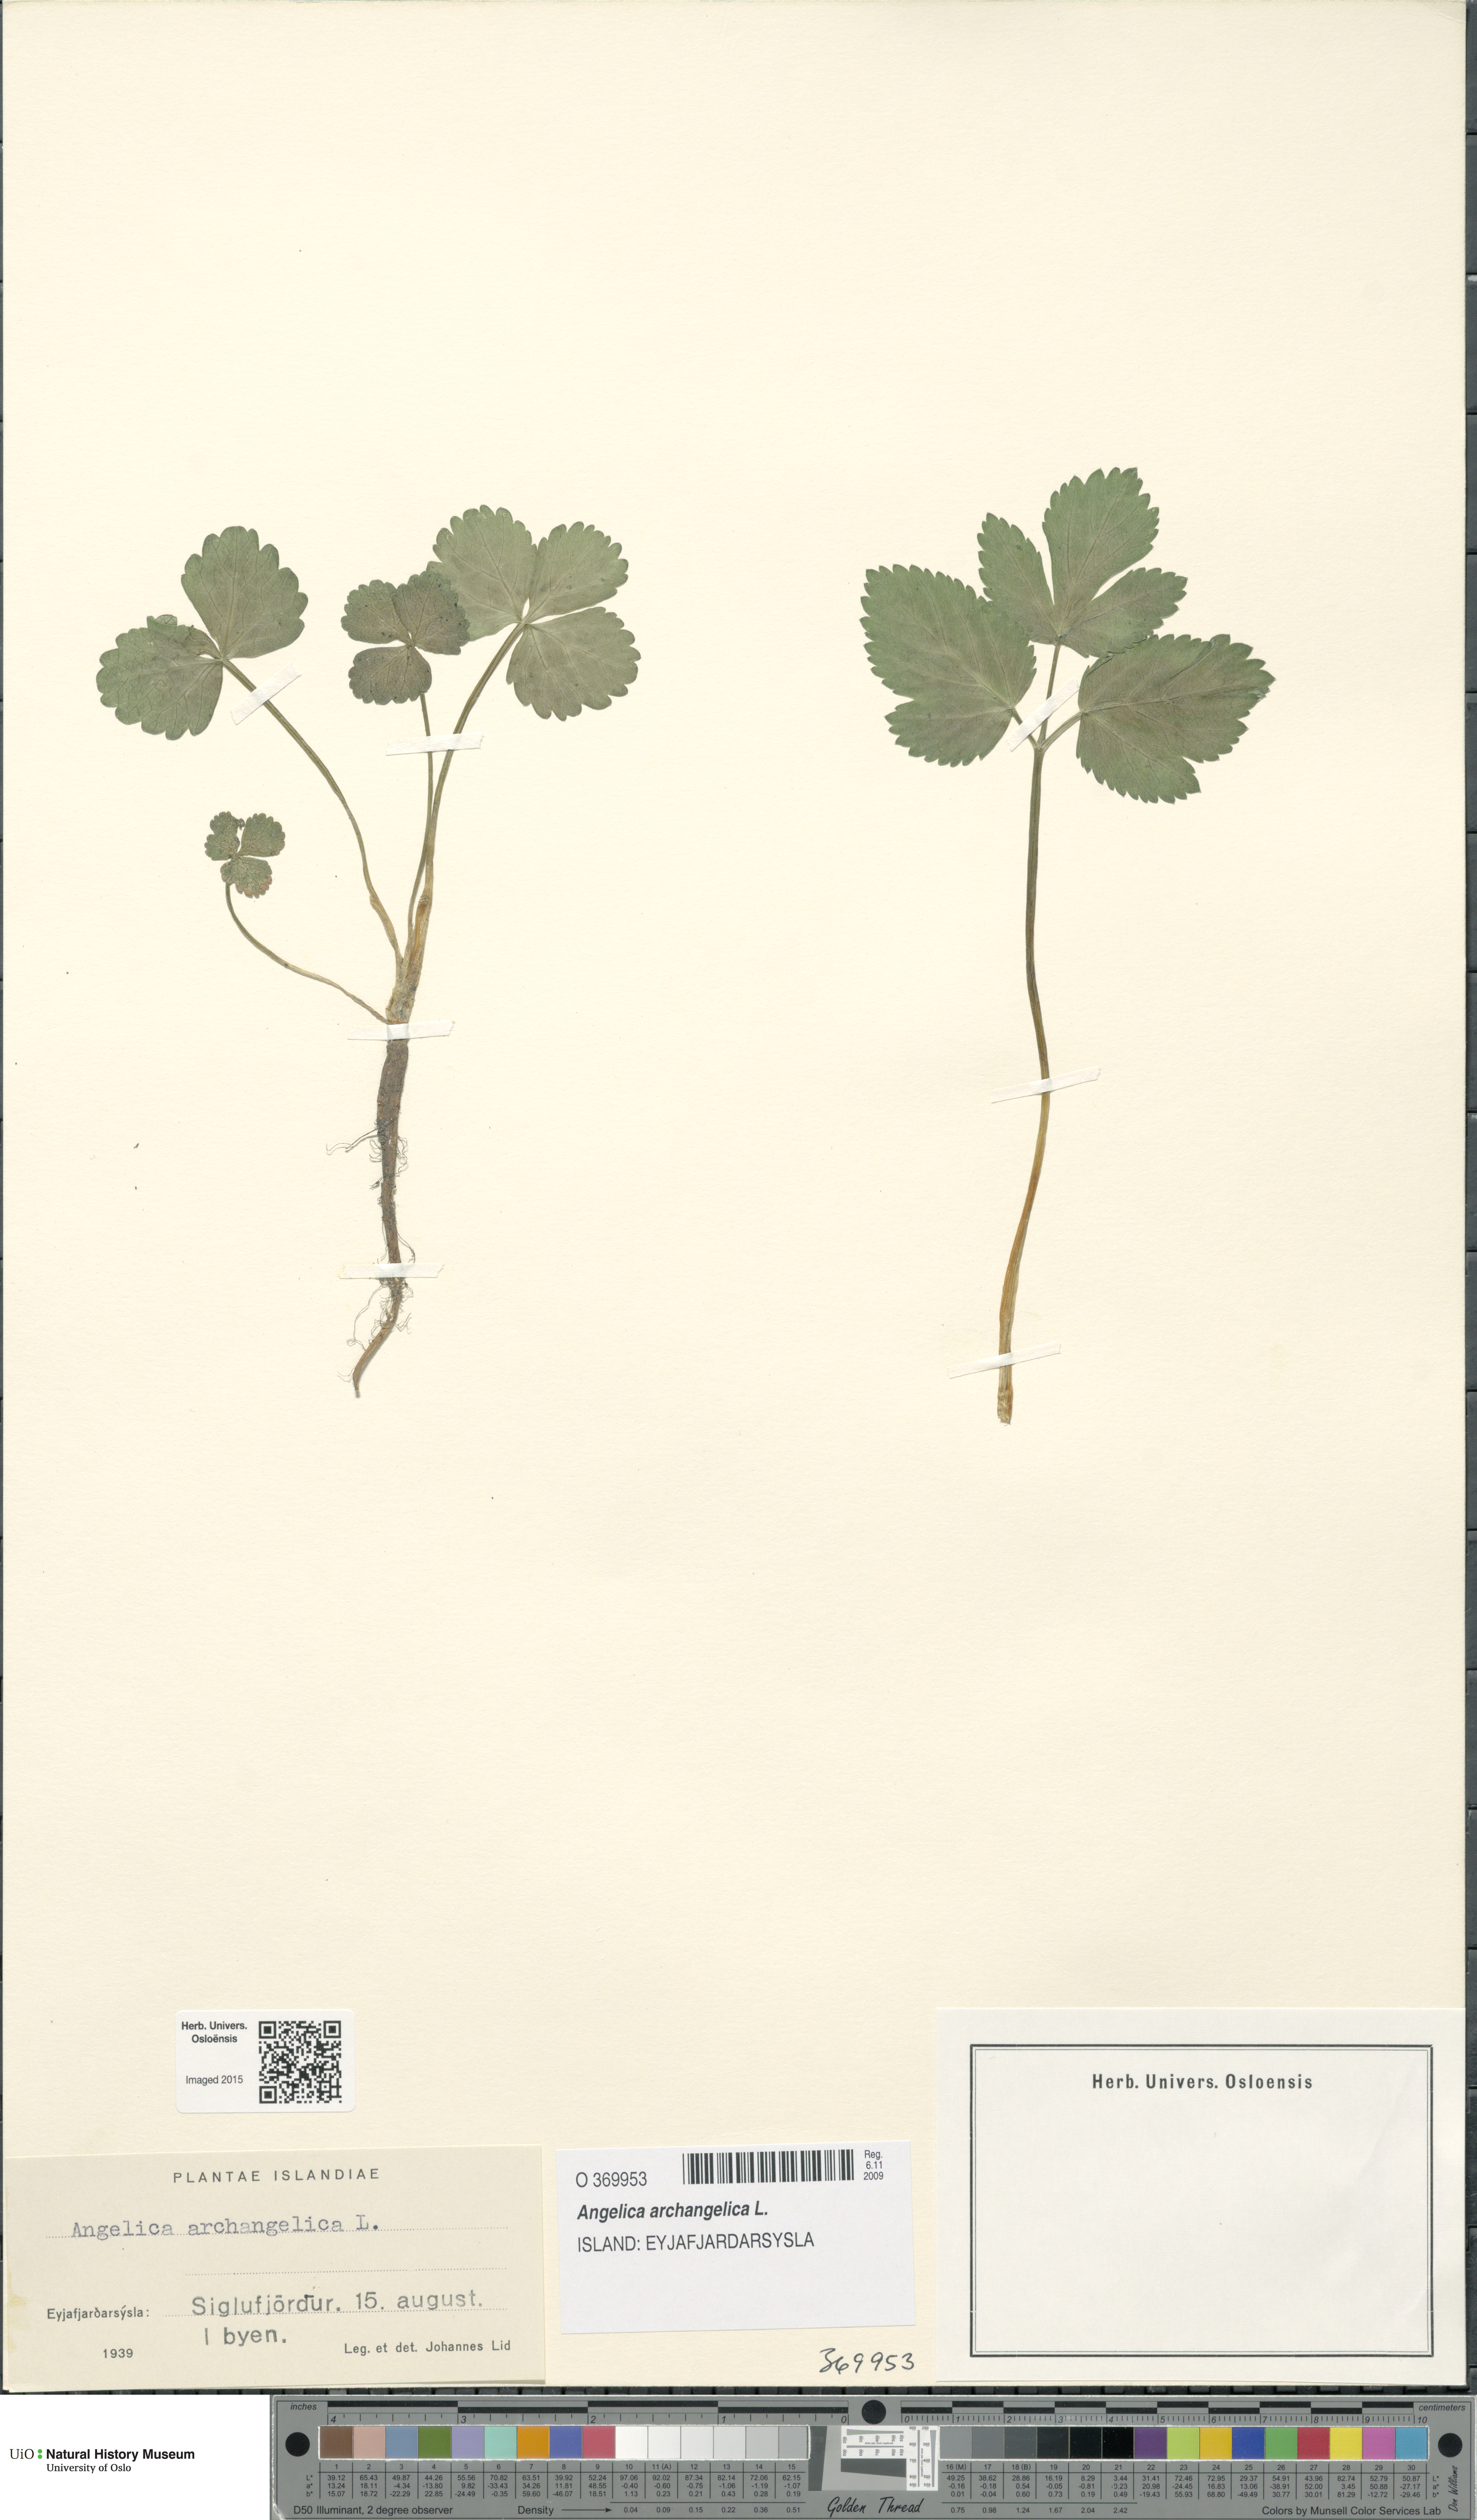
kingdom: Plantae
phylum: Tracheophyta
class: Magnoliopsida
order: Apiales
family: Apiaceae
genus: Angelica
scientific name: Angelica archangelica
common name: Garden angelica
